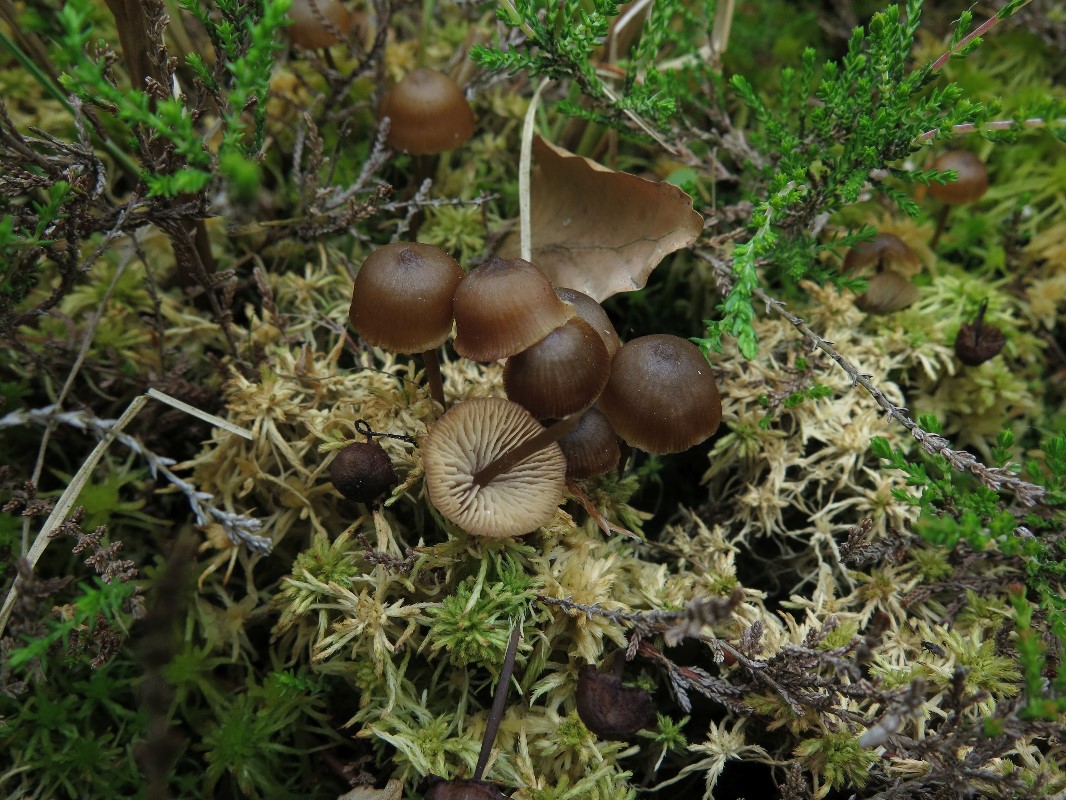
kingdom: Fungi
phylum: Basidiomycota
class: Agaricomycetes
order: Agaricales
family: Lyophyllaceae
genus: Sphagnurus
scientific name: Sphagnurus paluster
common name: tørvemos-gråblad
